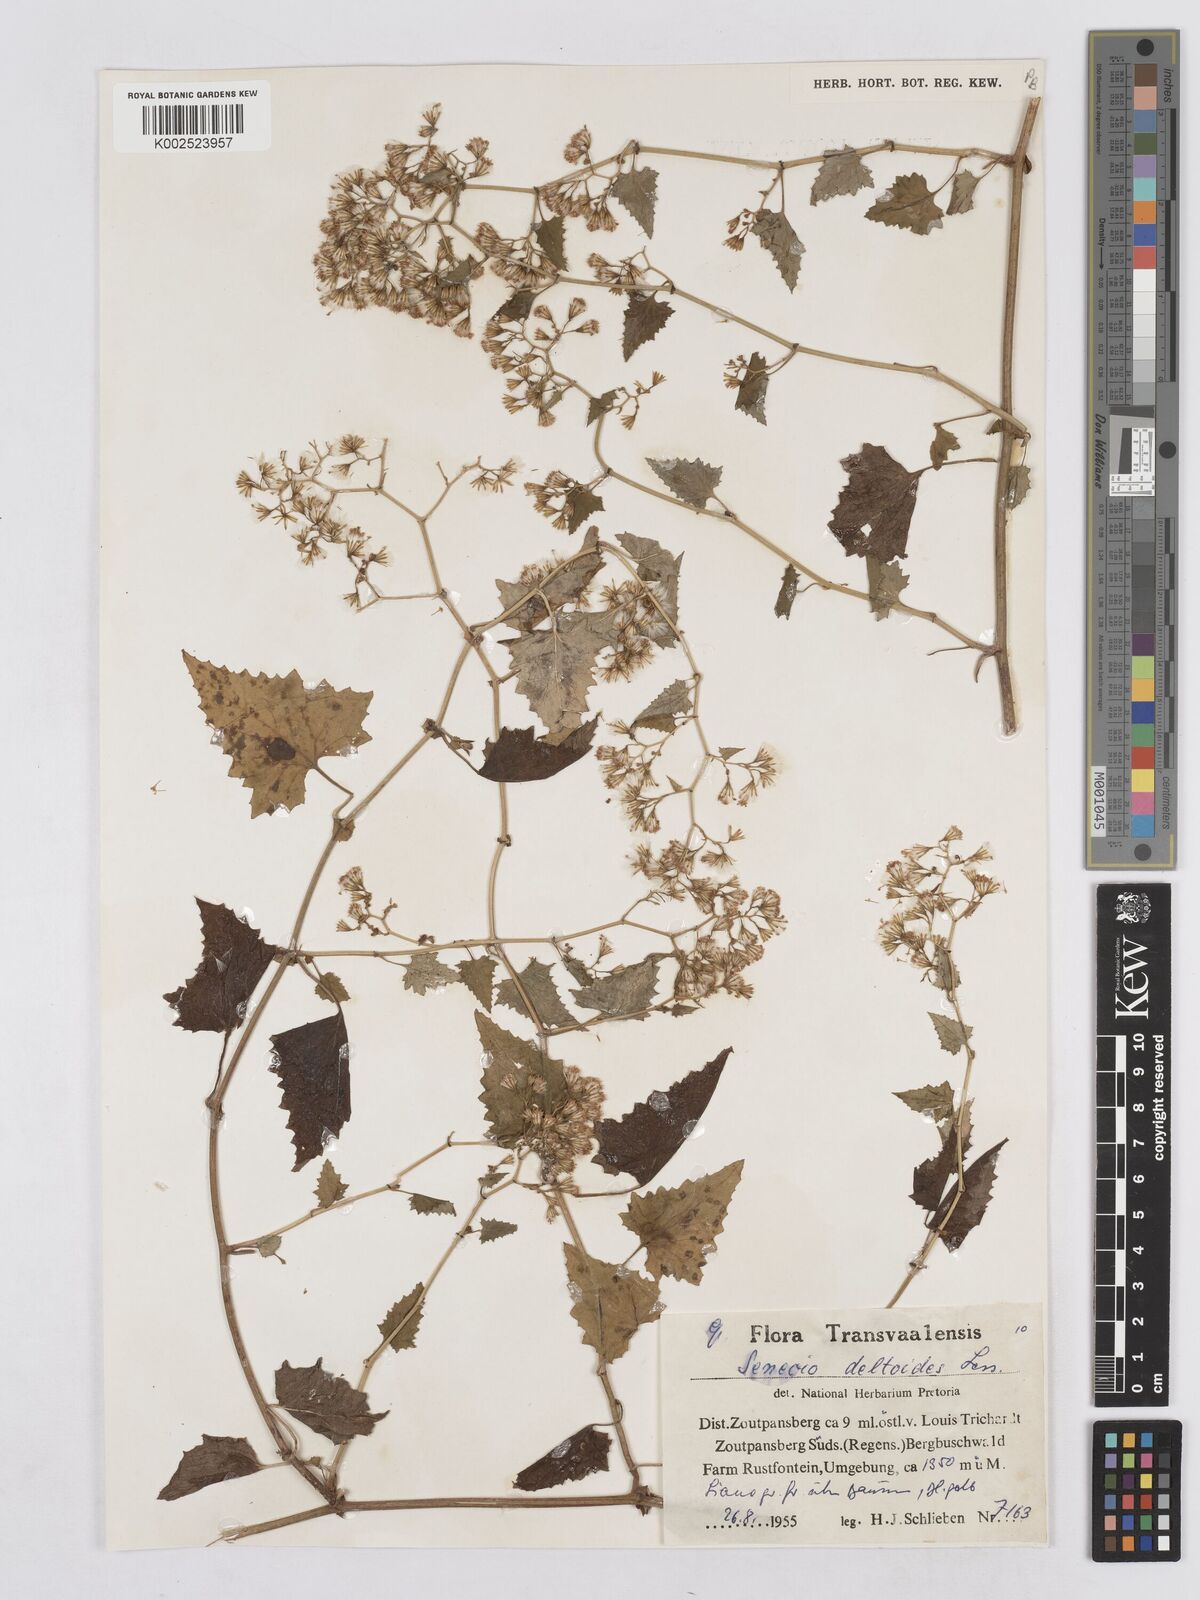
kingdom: Plantae
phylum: Tracheophyta
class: Magnoliopsida
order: Asterales
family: Asteraceae
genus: Senecio
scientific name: Senecio deltoideus
